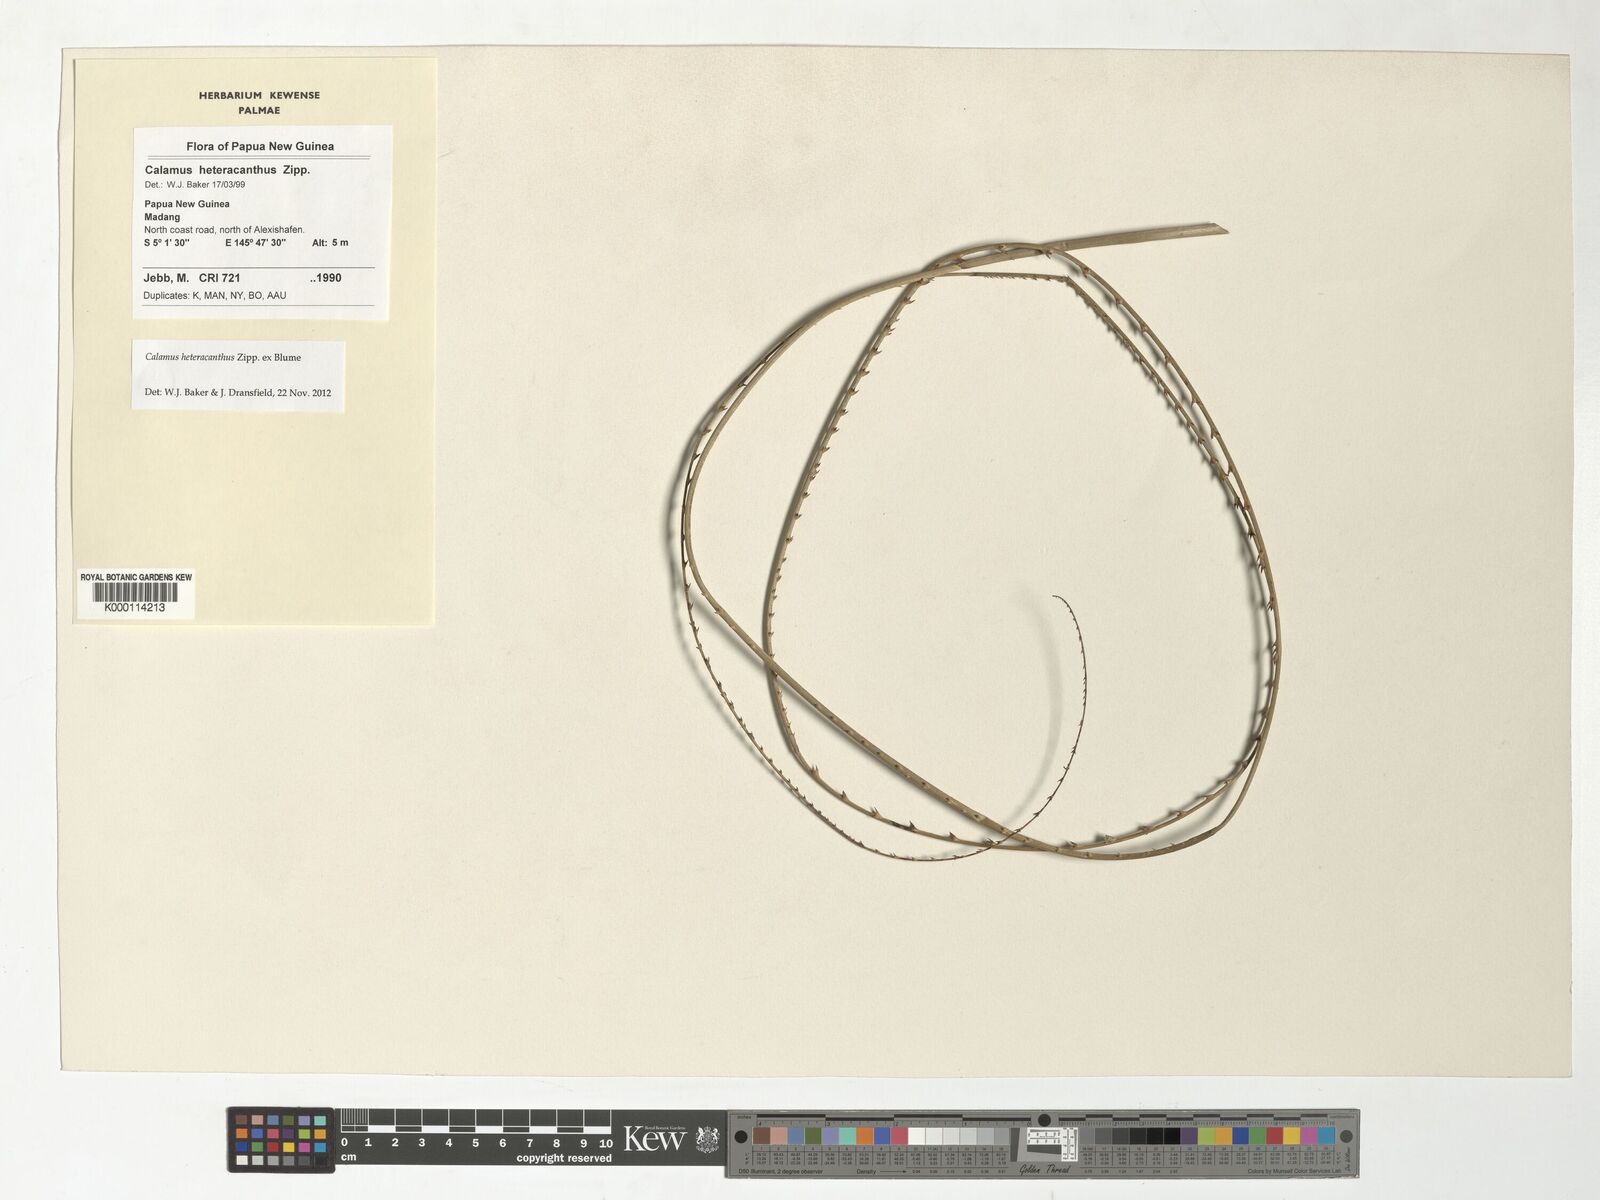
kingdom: Plantae
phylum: Tracheophyta
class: Liliopsida
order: Arecales
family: Arecaceae
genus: Calamus
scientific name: Calamus heteracanthus
